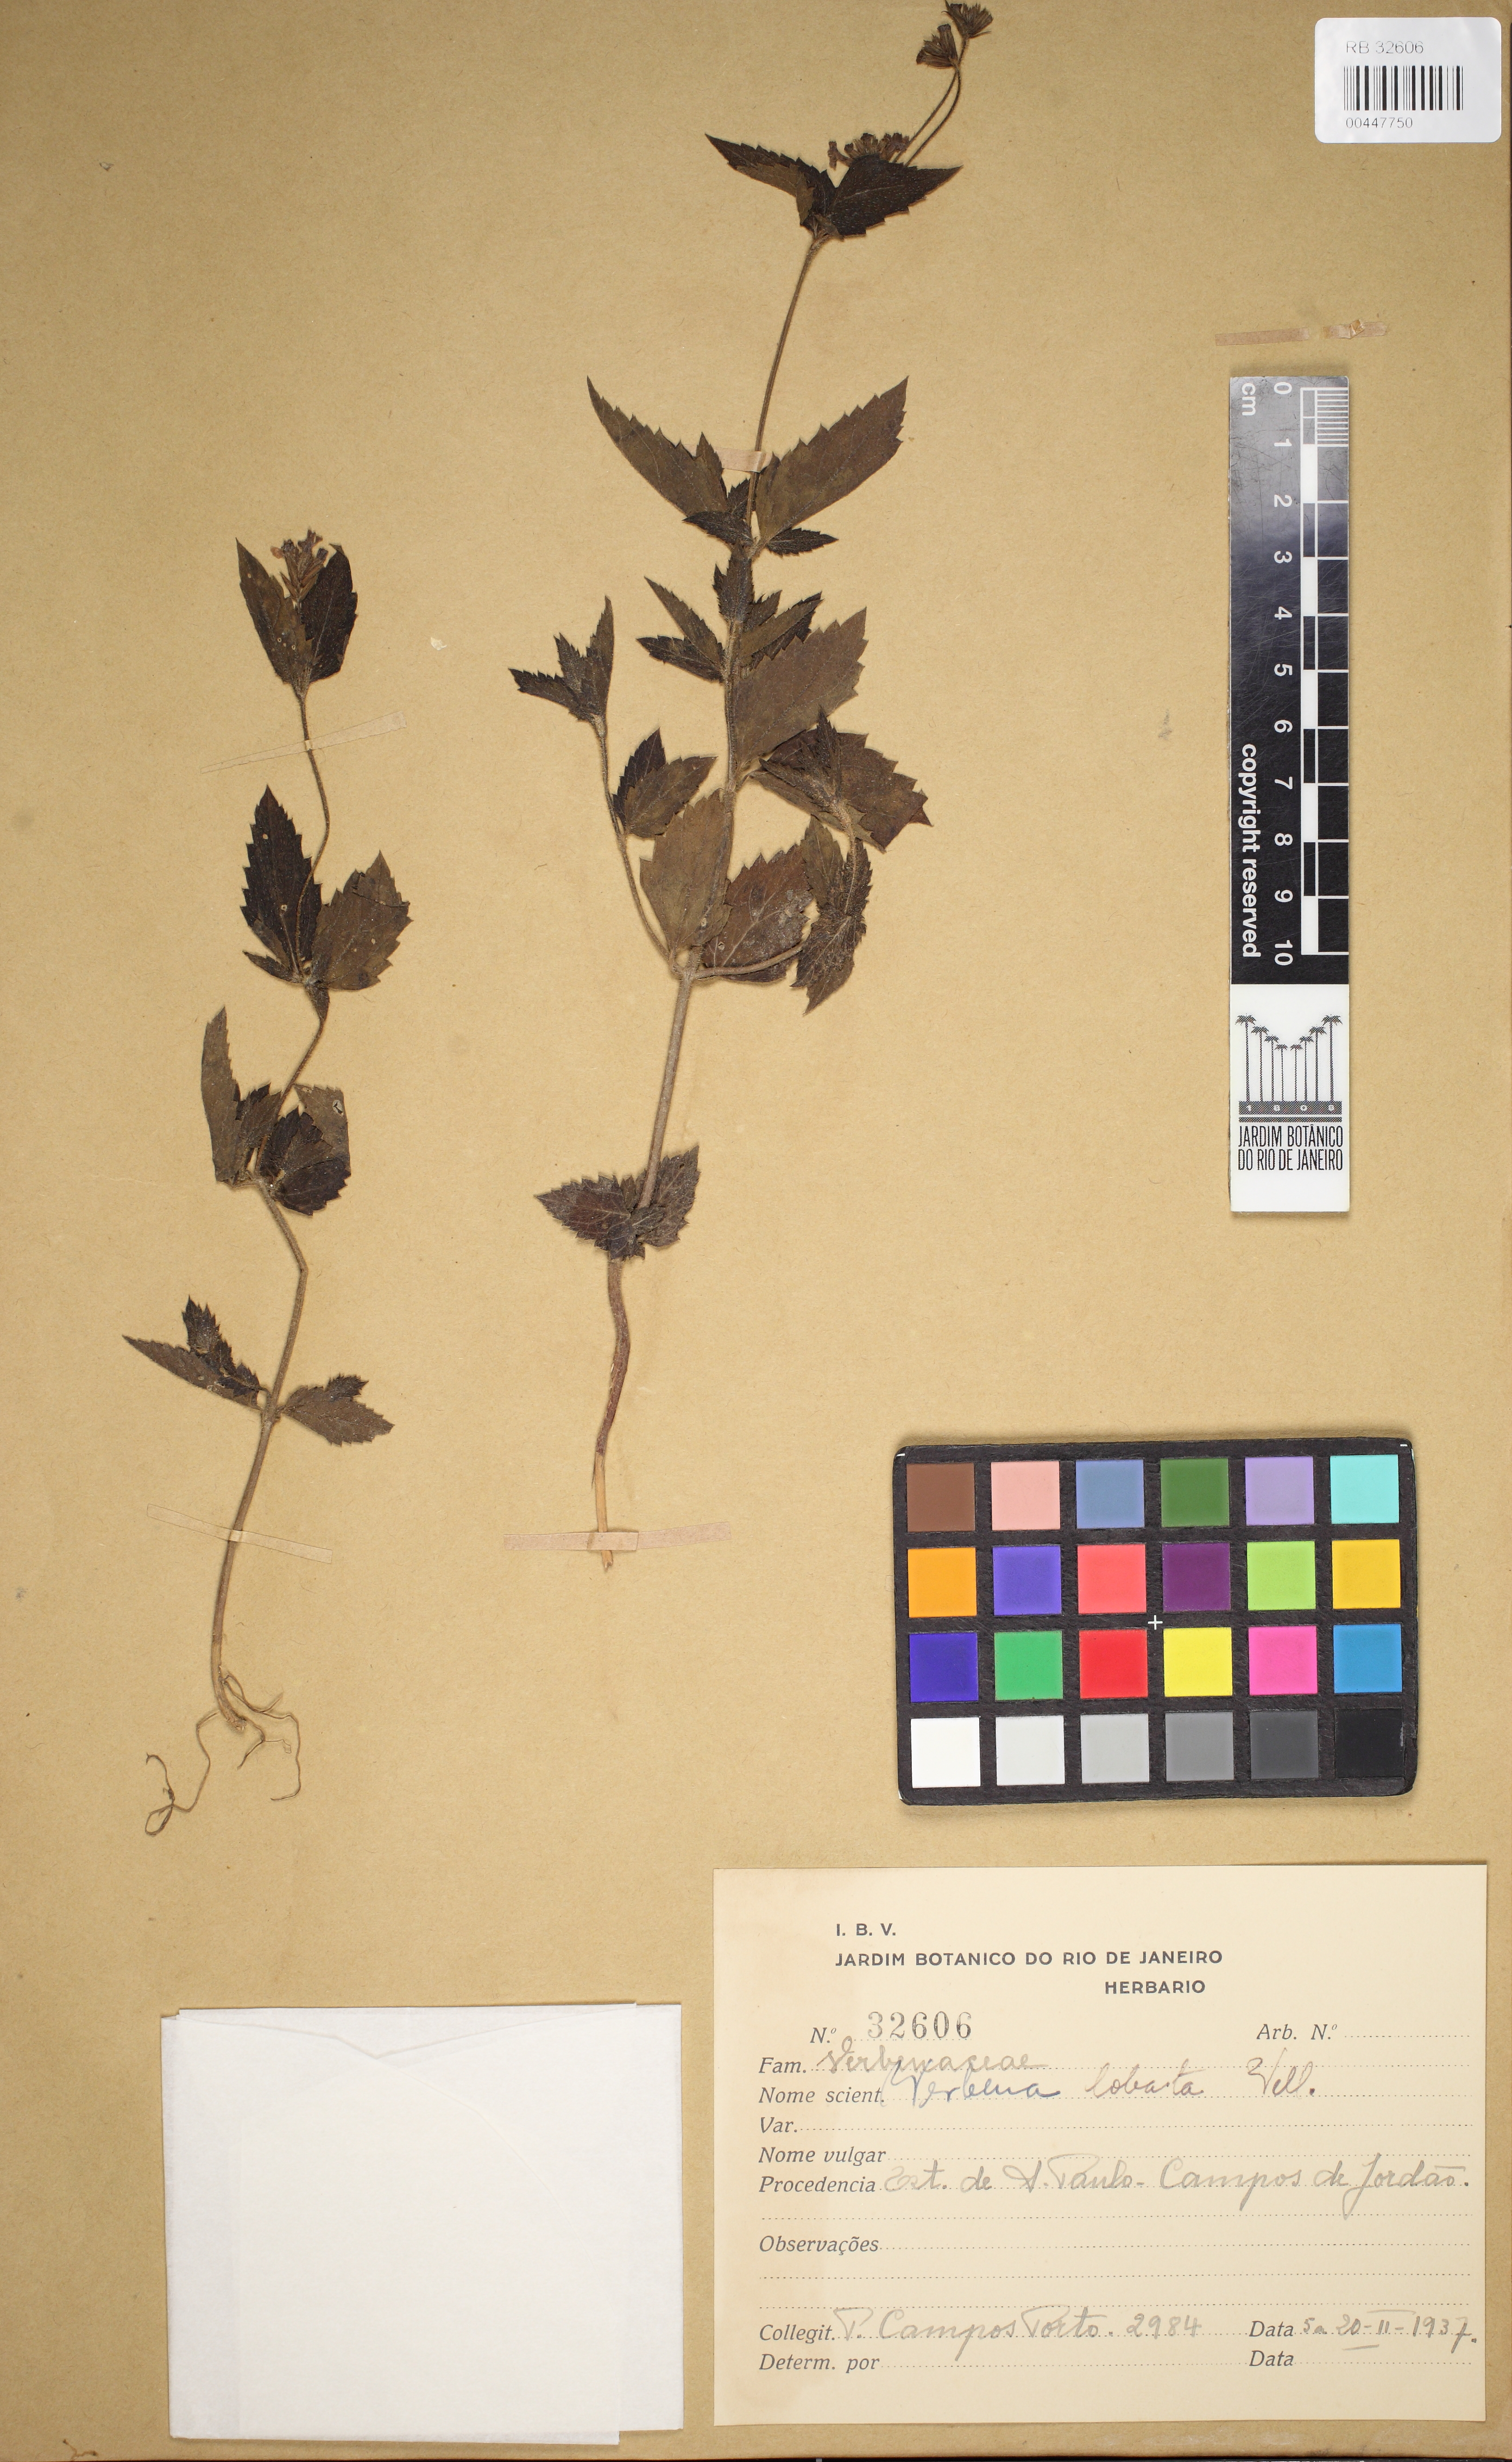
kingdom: Plantae
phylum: Tracheophyta
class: Magnoliopsida
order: Lamiales
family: Verbenaceae
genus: Verbena
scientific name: Verbena lobata
